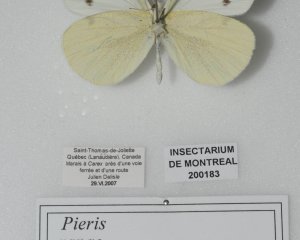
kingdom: Animalia
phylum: Arthropoda
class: Insecta
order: Lepidoptera
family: Pieridae
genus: Pieris
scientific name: Pieris rapae
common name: Cabbage White
